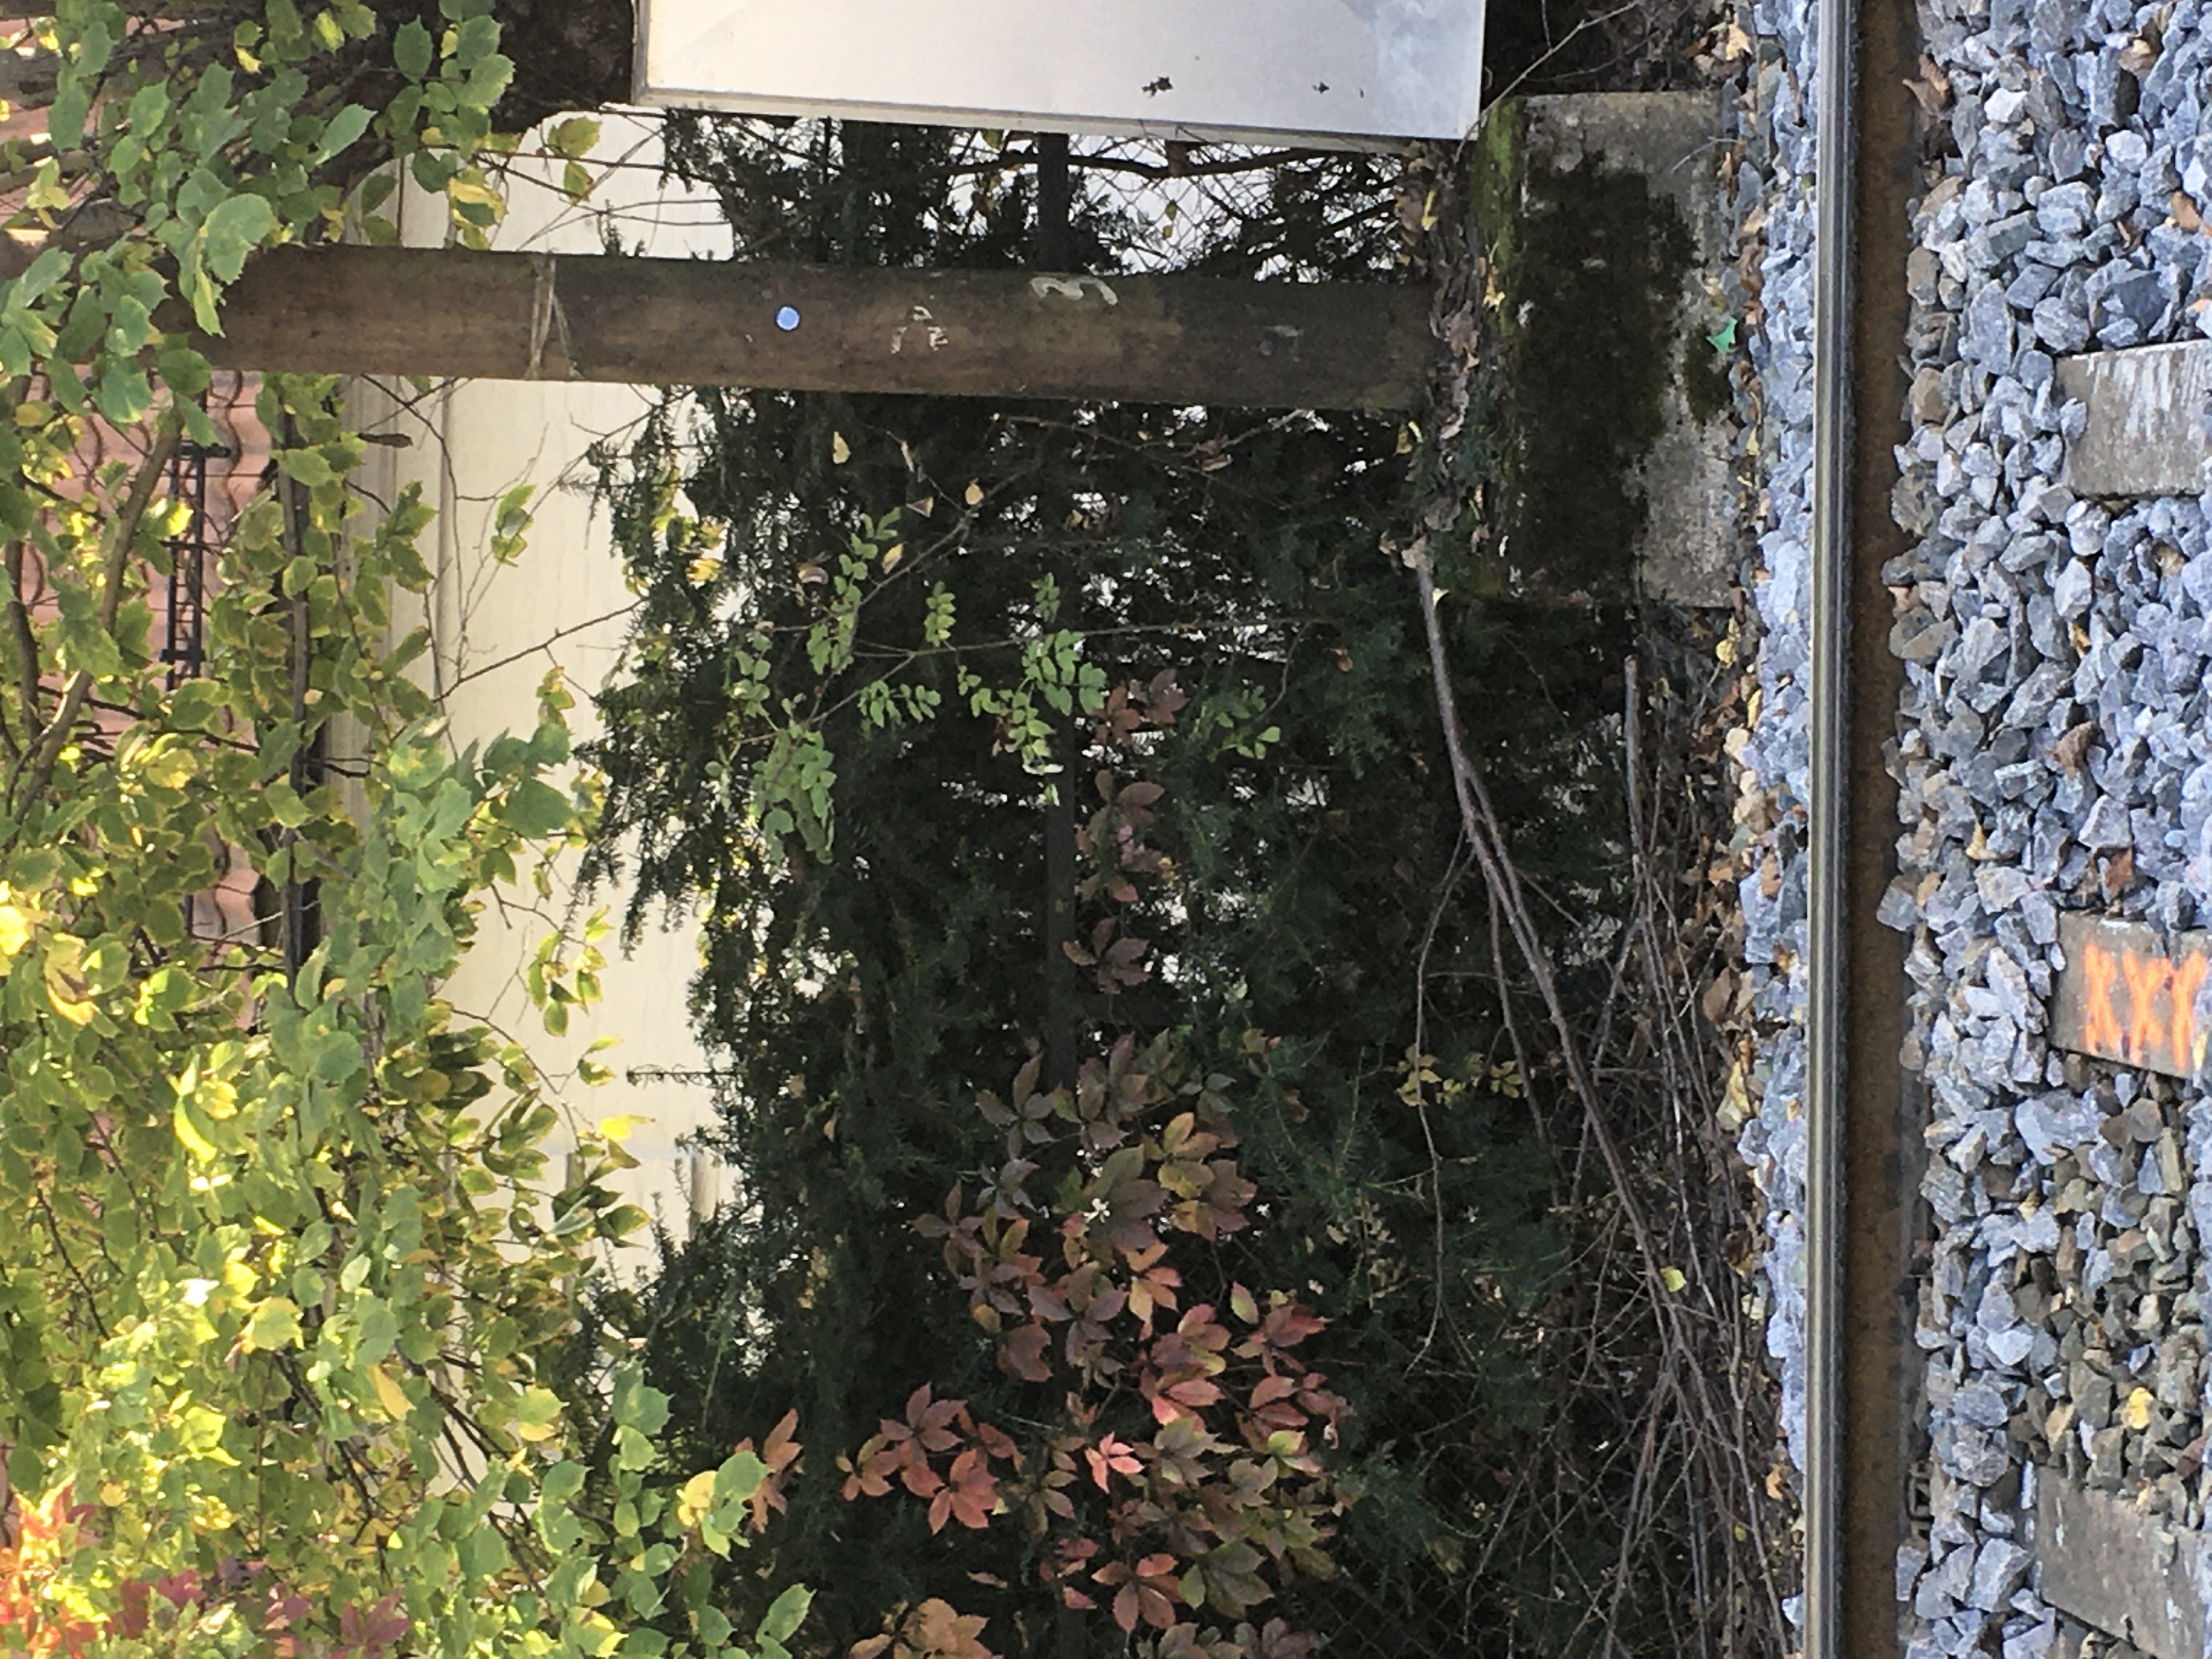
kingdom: Plantae
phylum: Tracheophyta
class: Pinopsida
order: Pinales
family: Taxaceae
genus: Taxus
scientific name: Taxus media
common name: hybridbarlind
